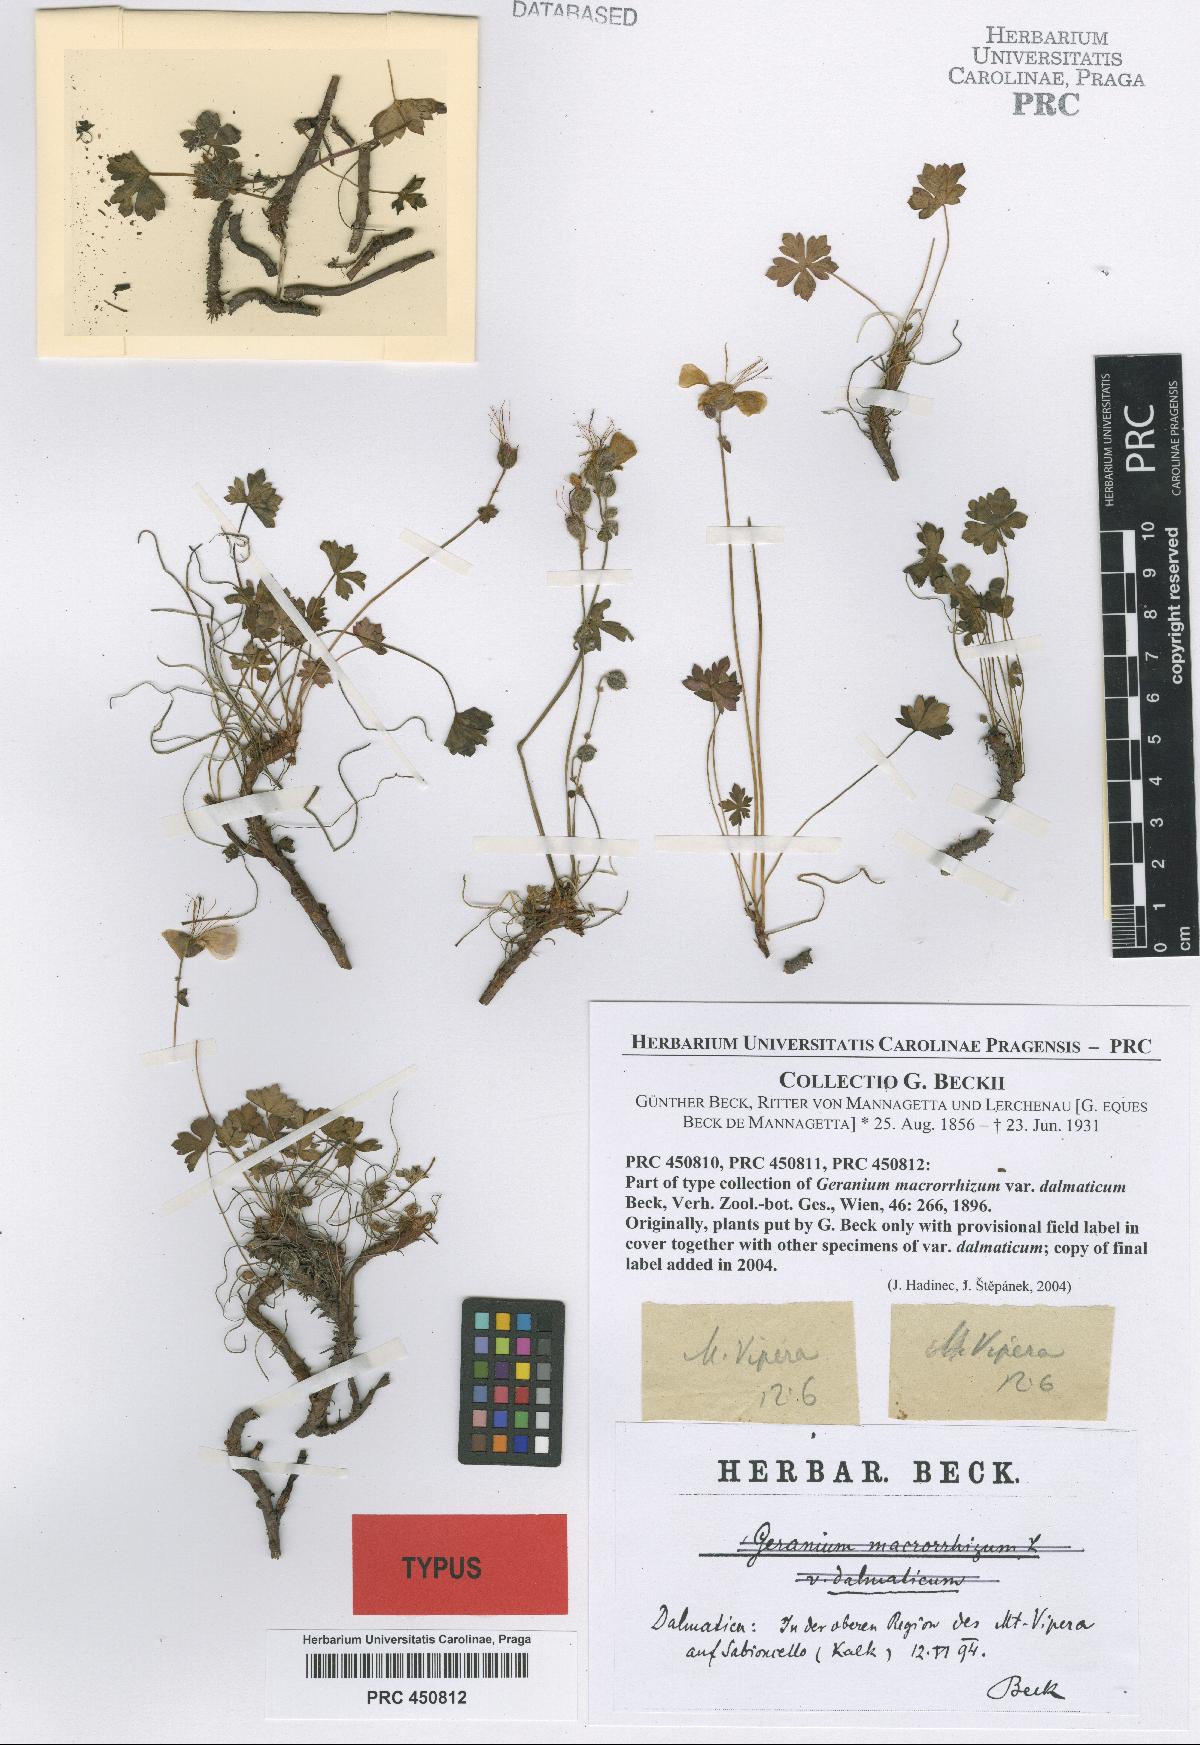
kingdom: Plantae
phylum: Tracheophyta
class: Magnoliopsida
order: Geraniales
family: Geraniaceae
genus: Geranium
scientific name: Geranium dalmaticum
